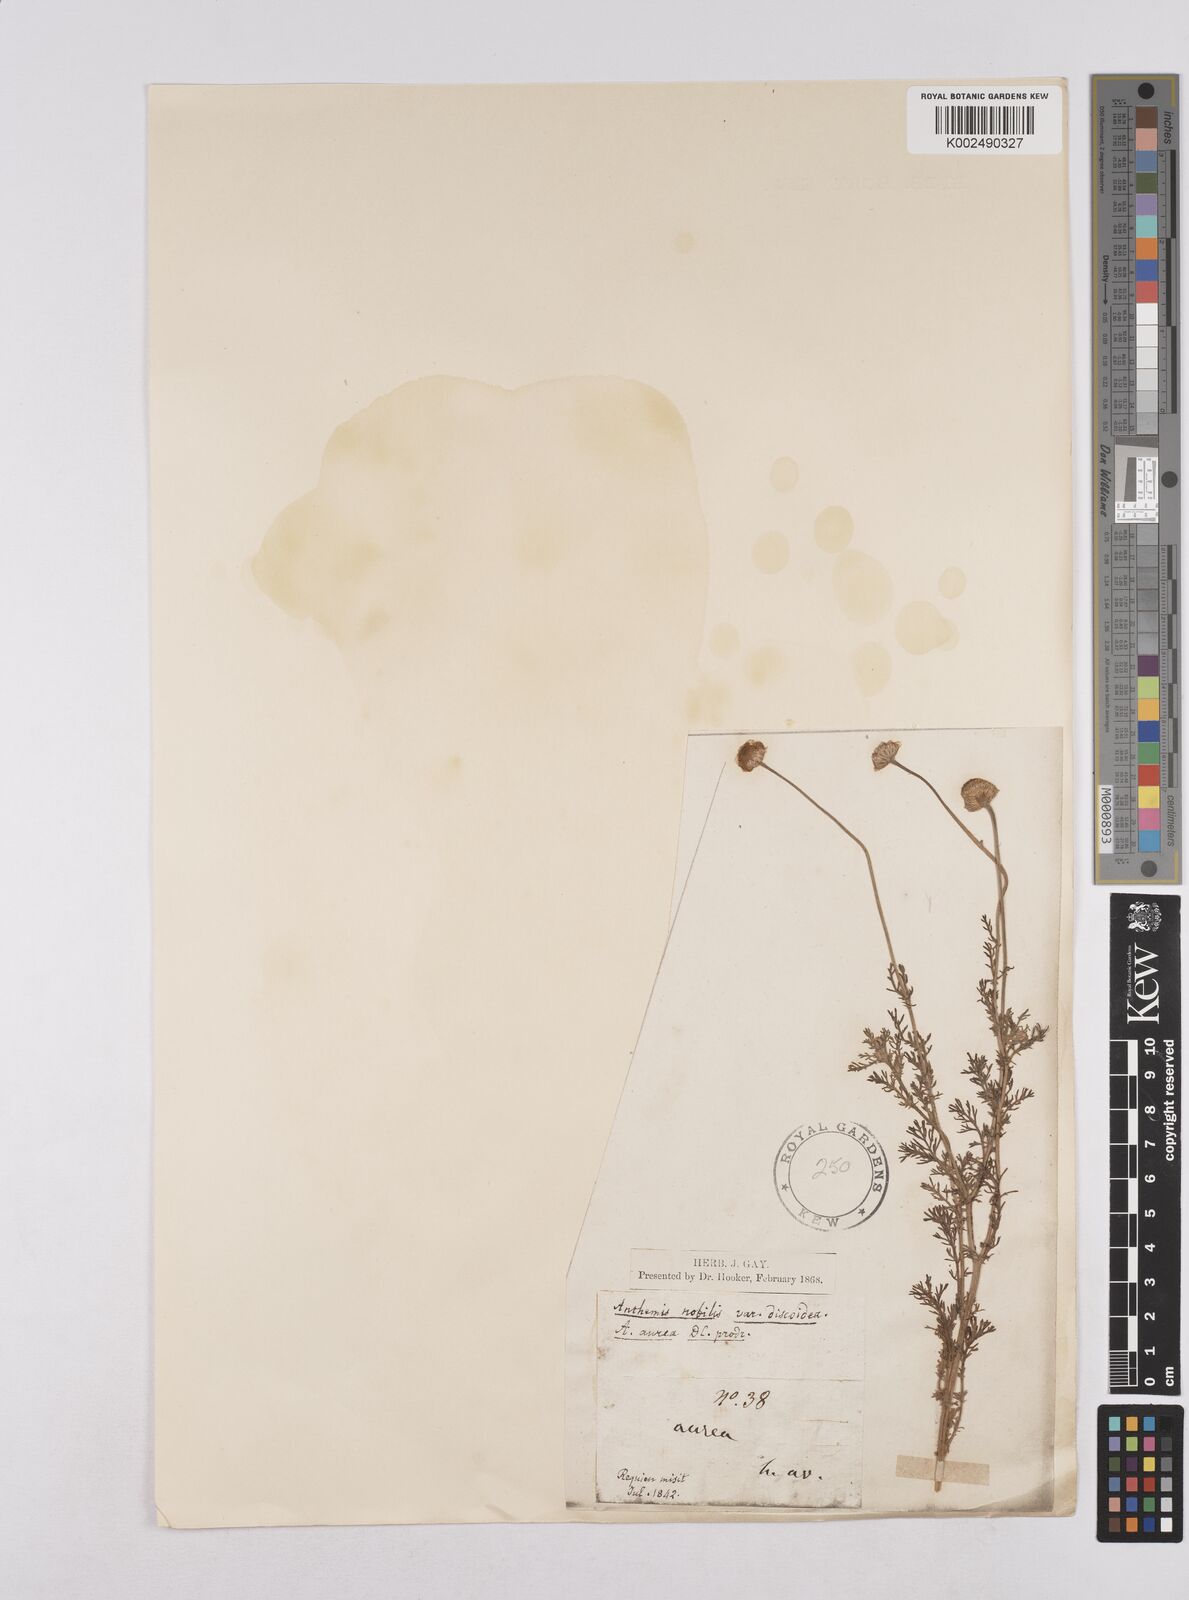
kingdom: Plantae
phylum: Tracheophyta
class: Magnoliopsida
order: Asterales
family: Asteraceae
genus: Matricaria
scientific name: Matricaria chamomilla
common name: Scented mayweed
